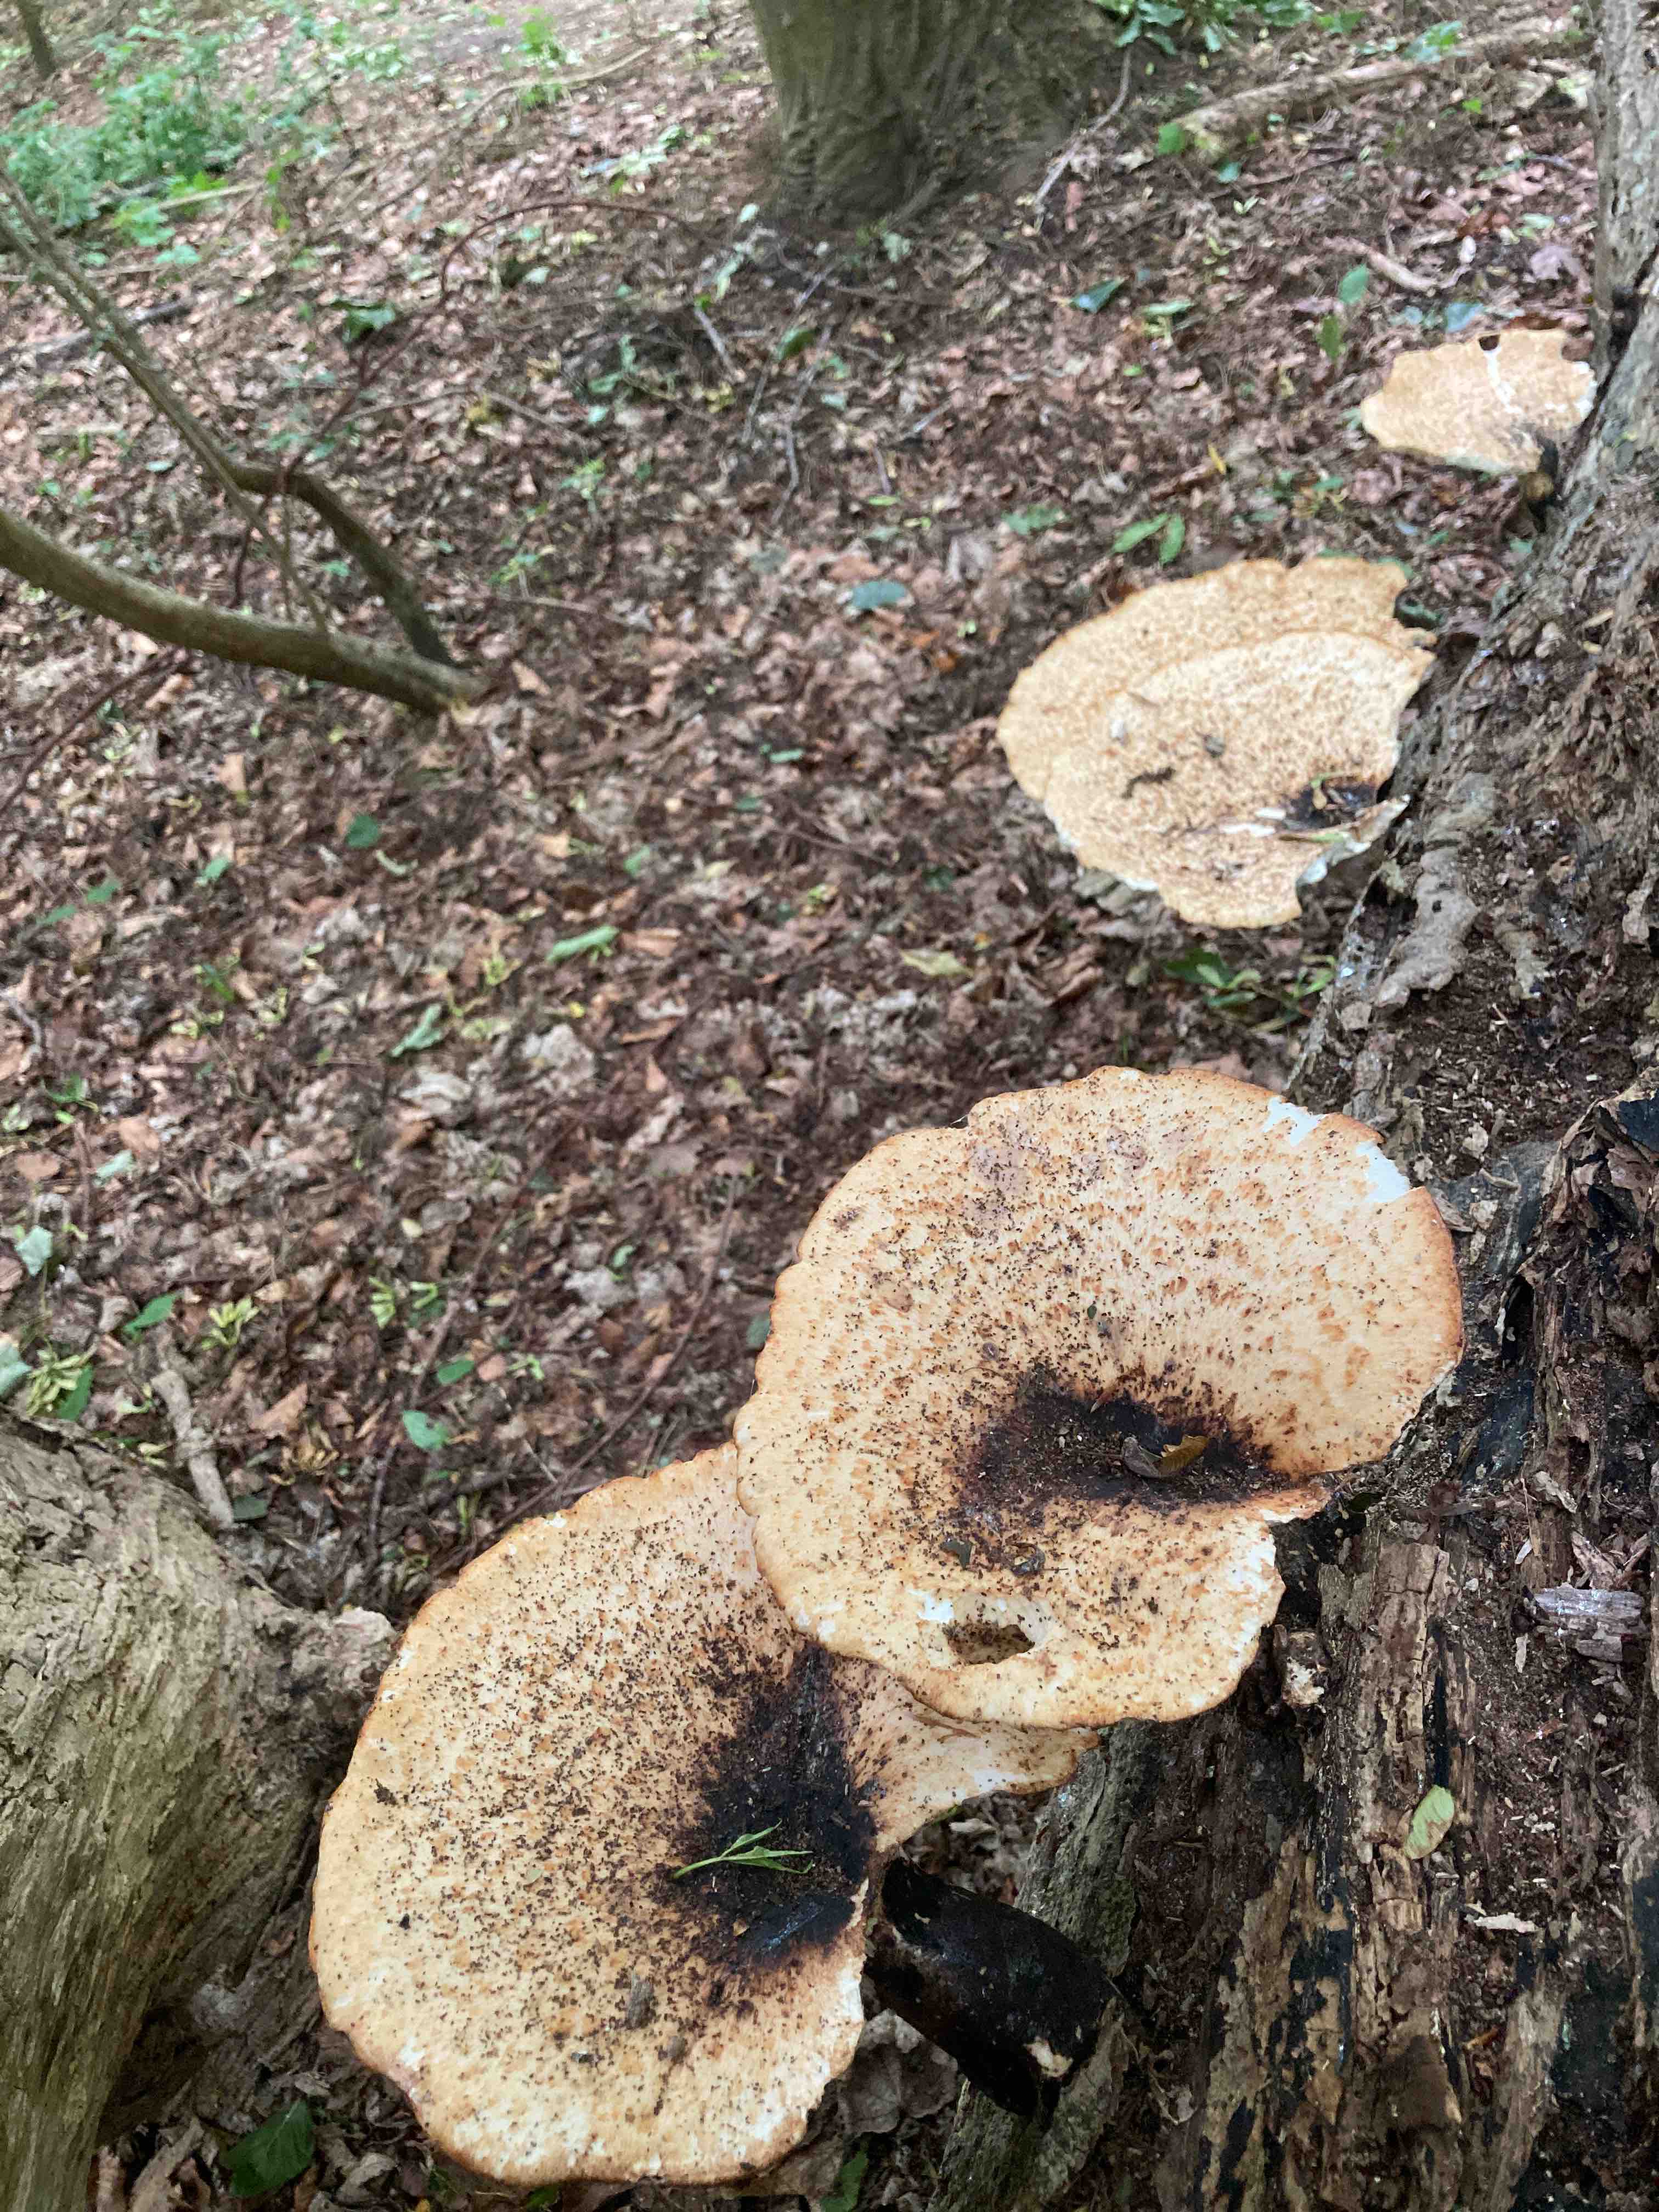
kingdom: Fungi
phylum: Basidiomycota
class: Agaricomycetes
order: Polyporales
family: Polyporaceae
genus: Cerioporus
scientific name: Cerioporus squamosus
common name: skællet stilkporesvamp
